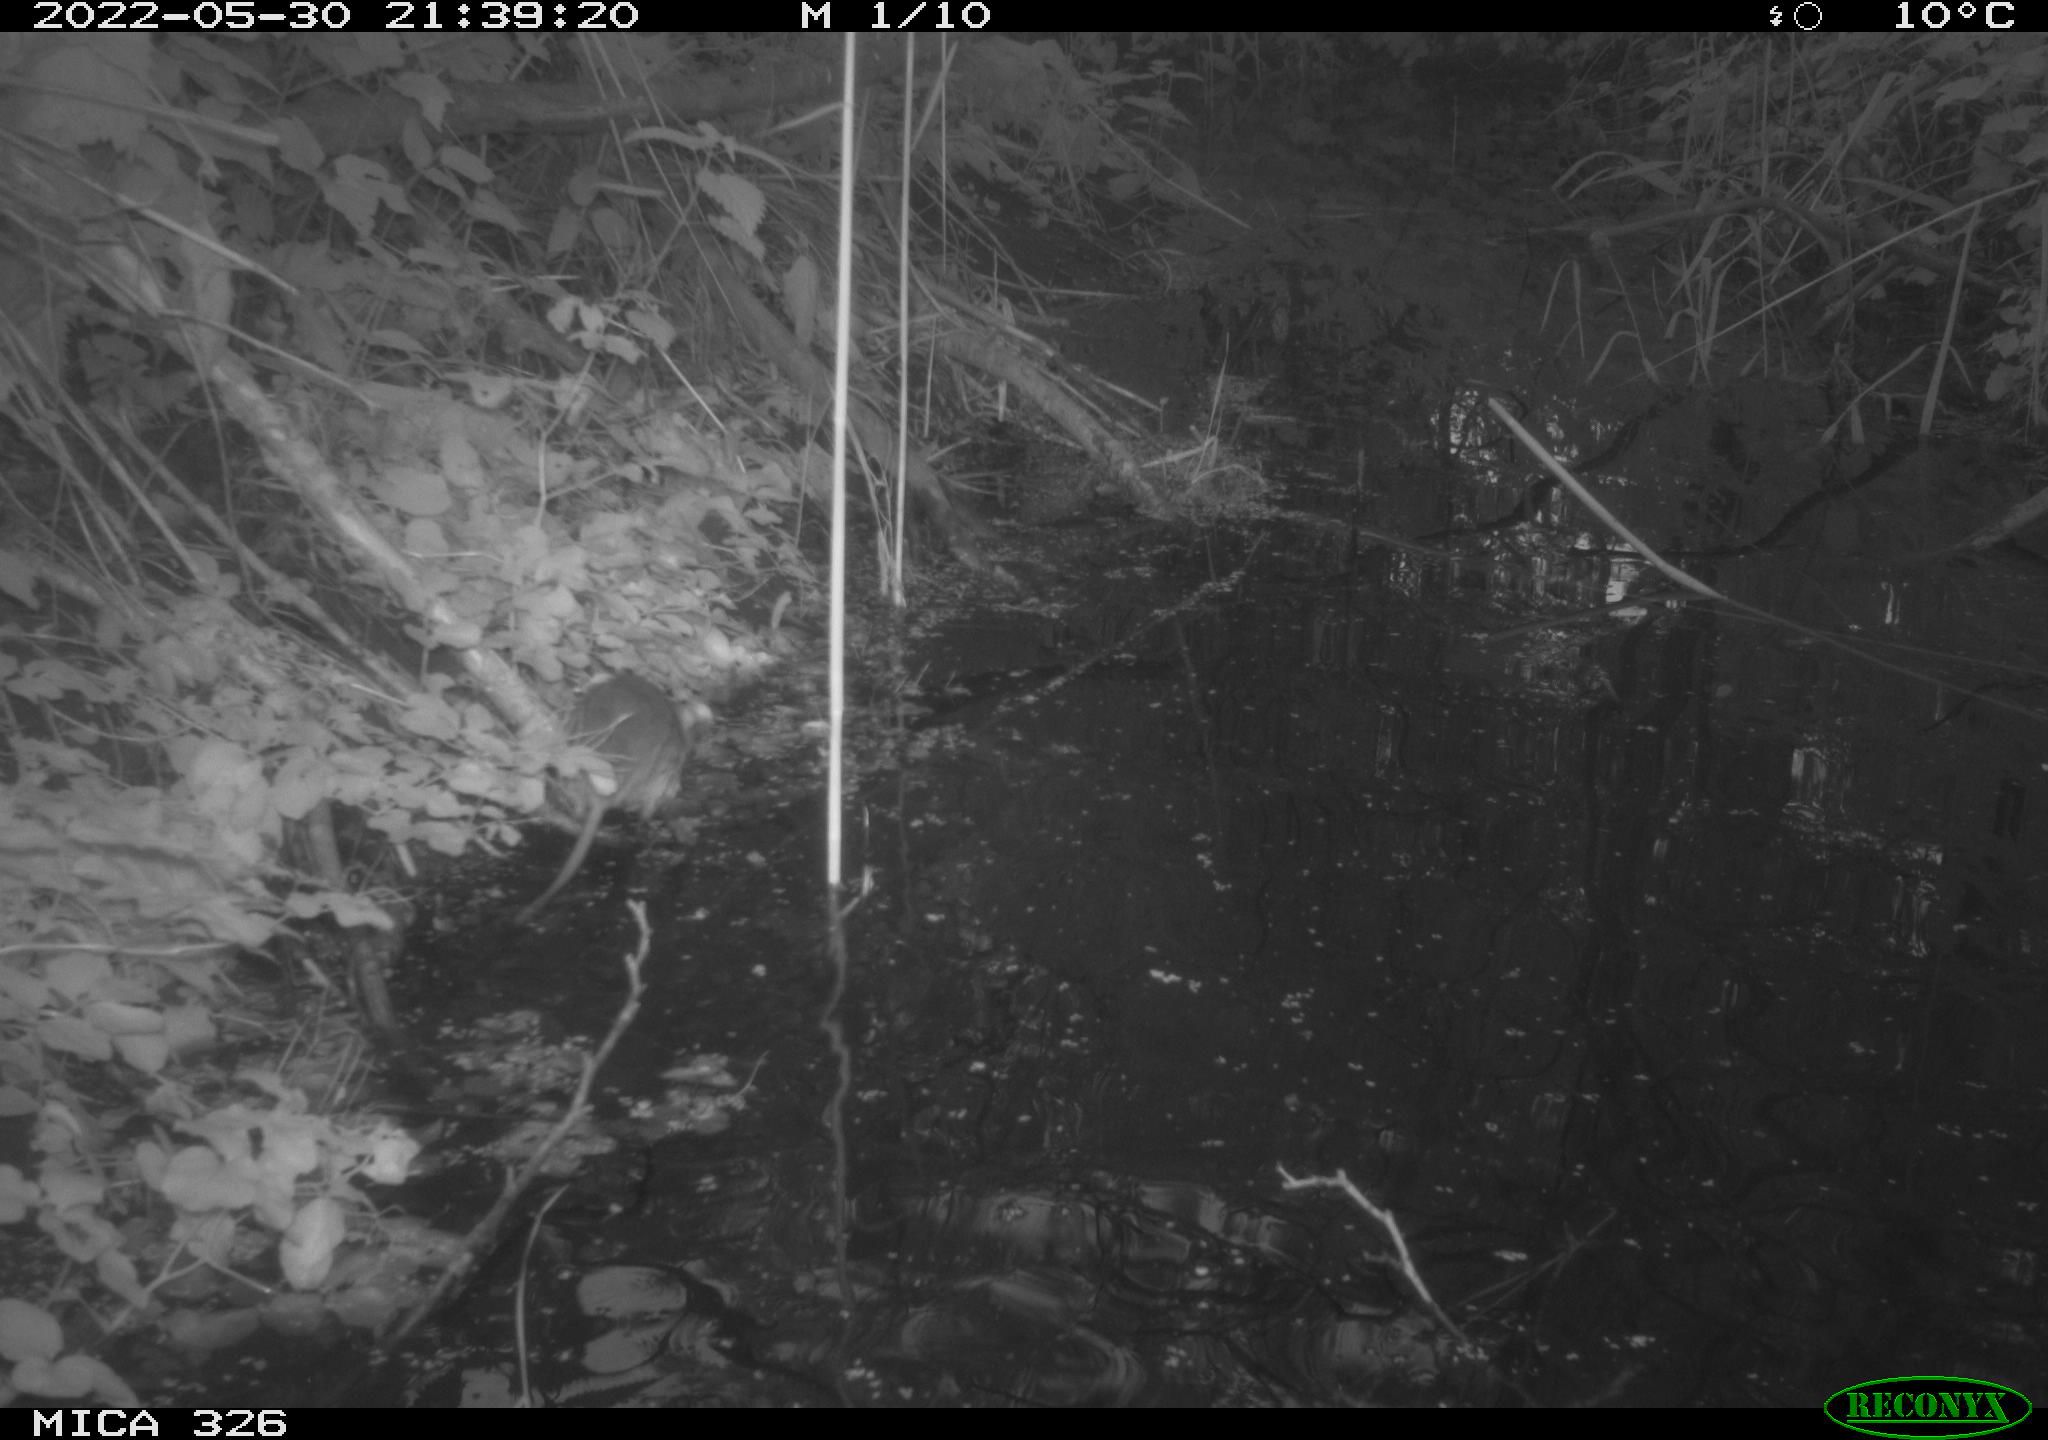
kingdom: Animalia
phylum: Chordata
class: Mammalia
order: Rodentia
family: Muridae
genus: Rattus
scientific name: Rattus norvegicus
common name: Brown rat
